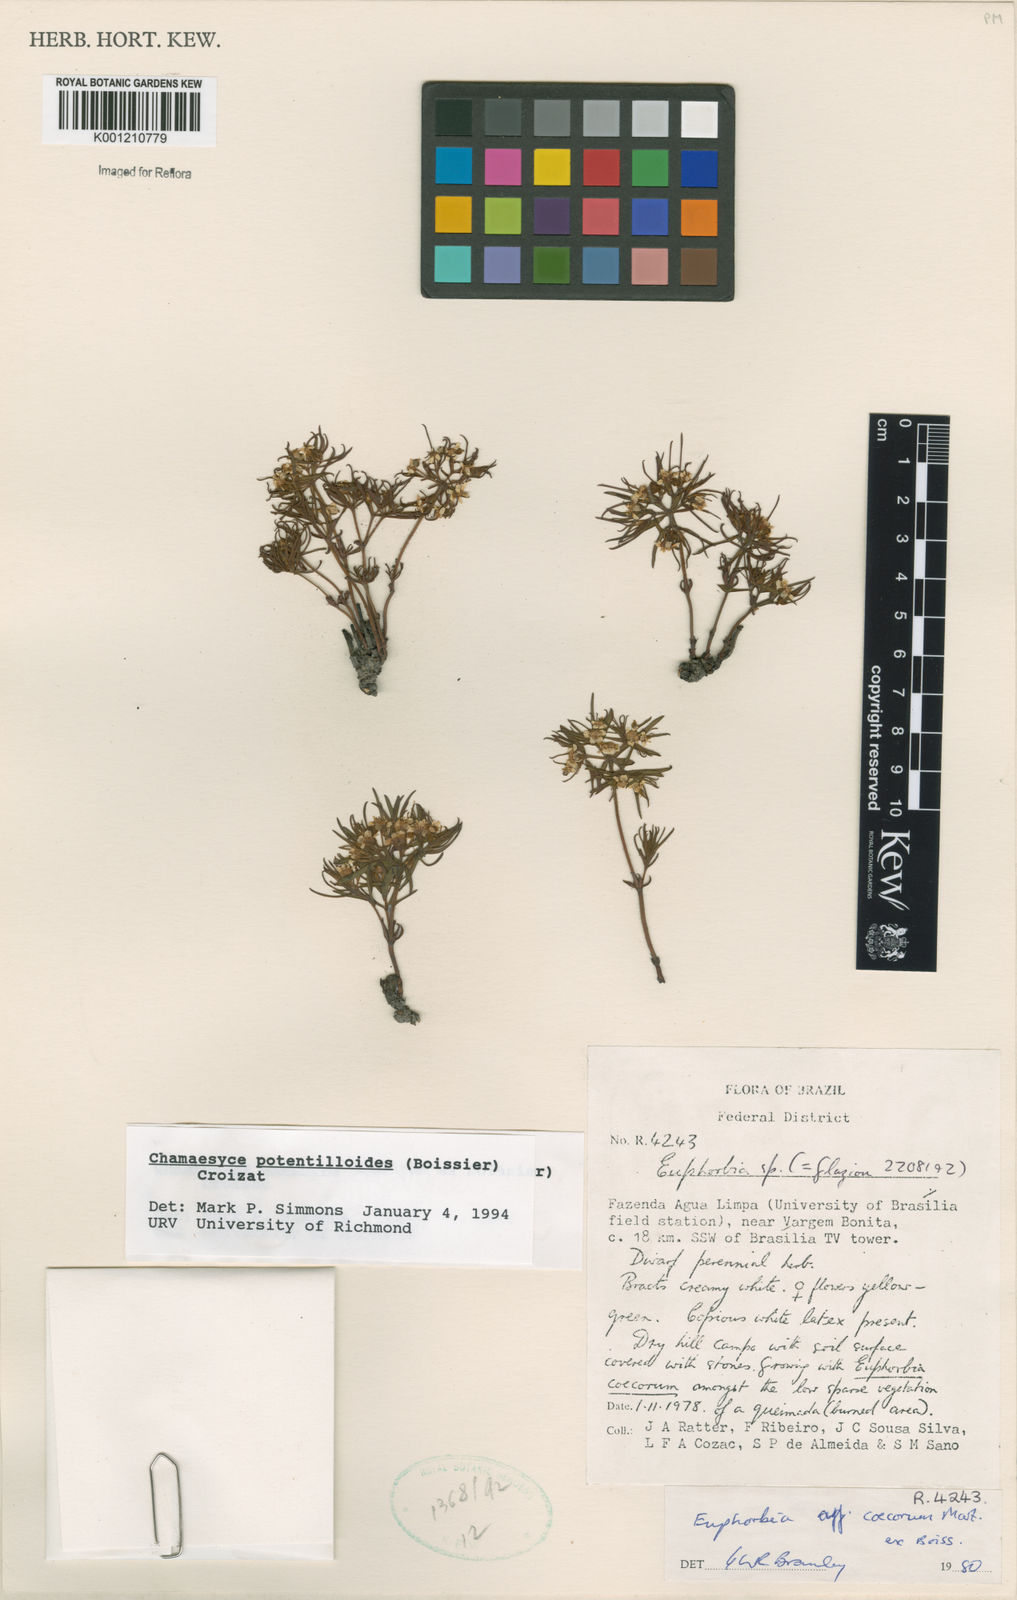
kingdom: Plantae
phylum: Tracheophyta
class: Magnoliopsida
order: Malpighiales
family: Euphorbiaceae
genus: Euphorbia
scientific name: Euphorbia potentilloides
